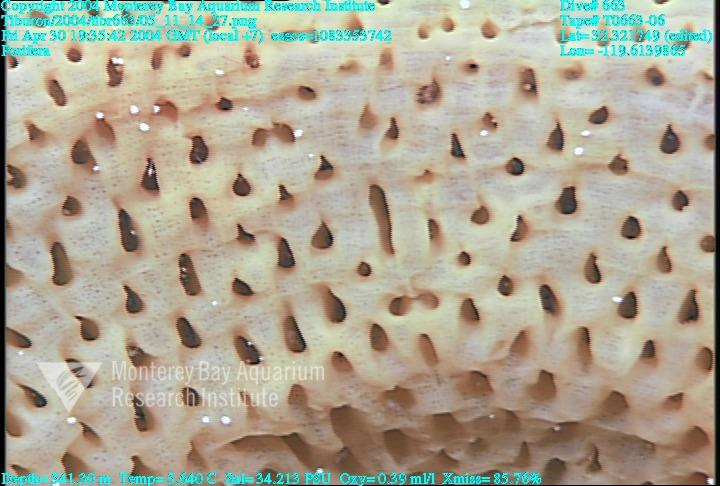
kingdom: Animalia
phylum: Porifera
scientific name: Porifera
